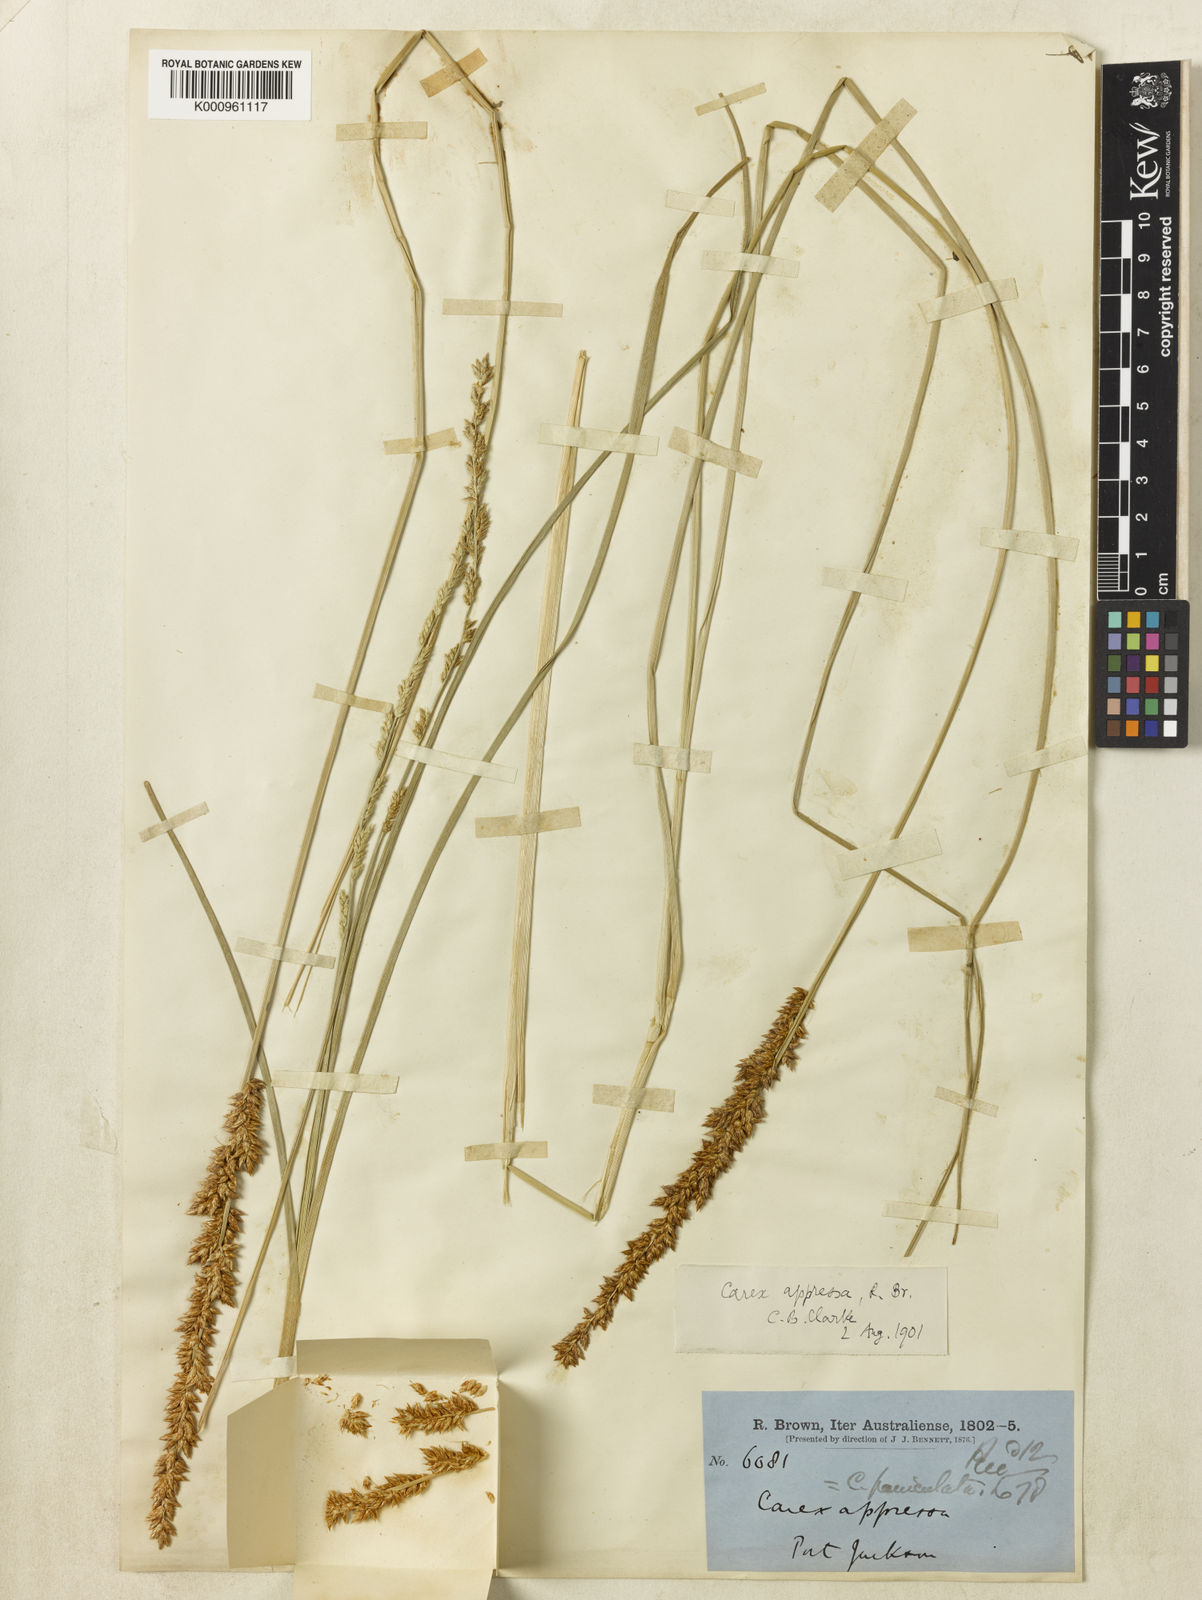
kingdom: Plantae
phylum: Tracheophyta
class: Liliopsida
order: Poales
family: Cyperaceae
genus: Carex
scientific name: Carex appressa
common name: Tussock sedge
